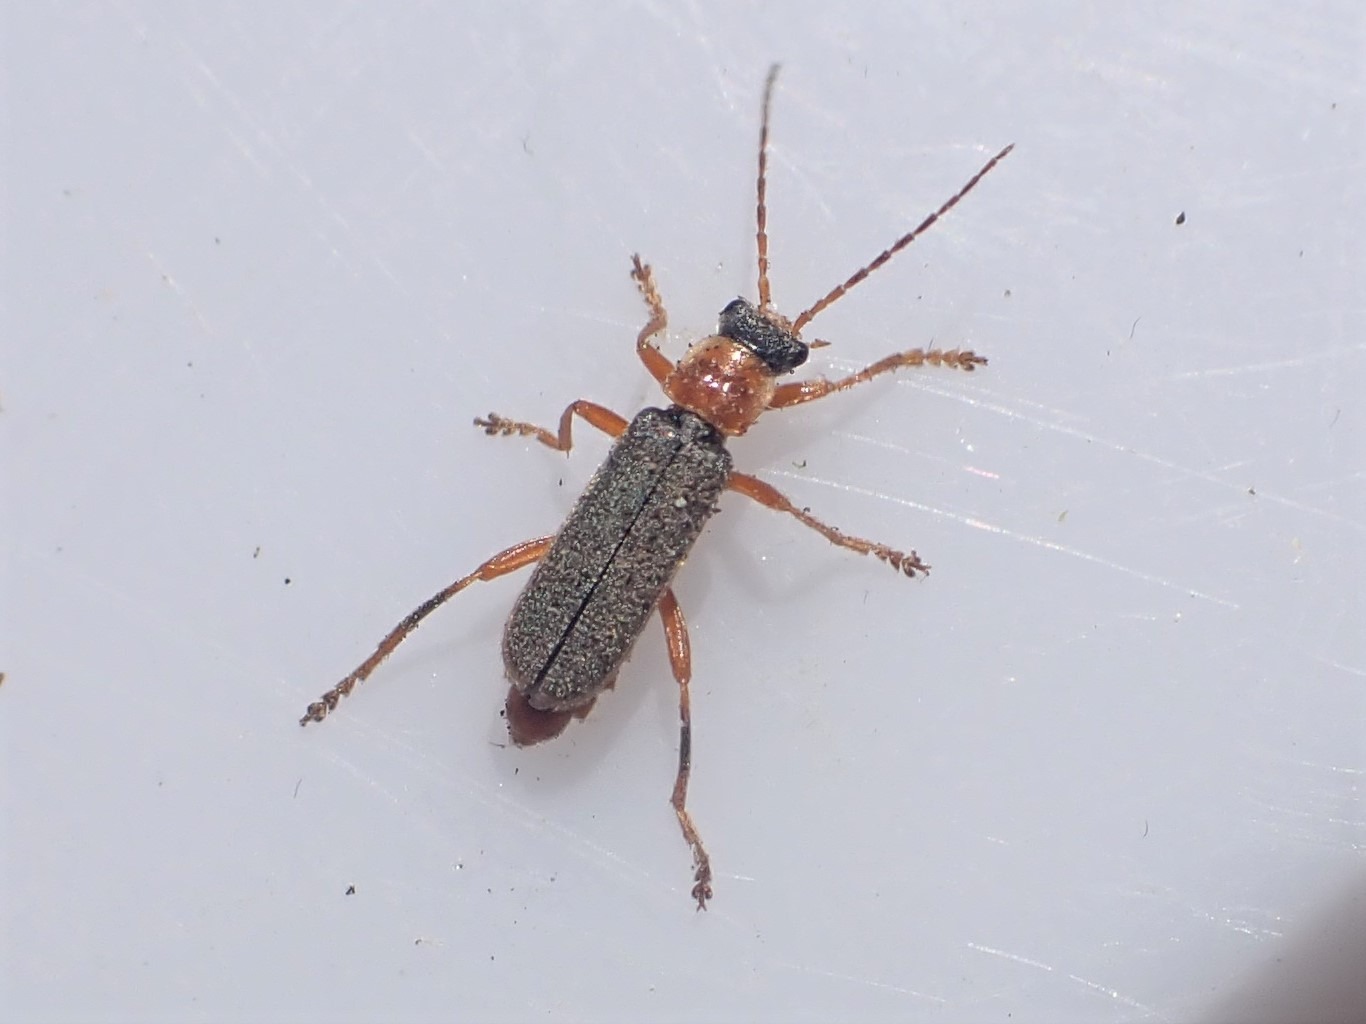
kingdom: Animalia
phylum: Arthropoda
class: Insecta
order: Coleoptera
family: Cantharidae
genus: Cantharis
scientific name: Cantharis lateralis
